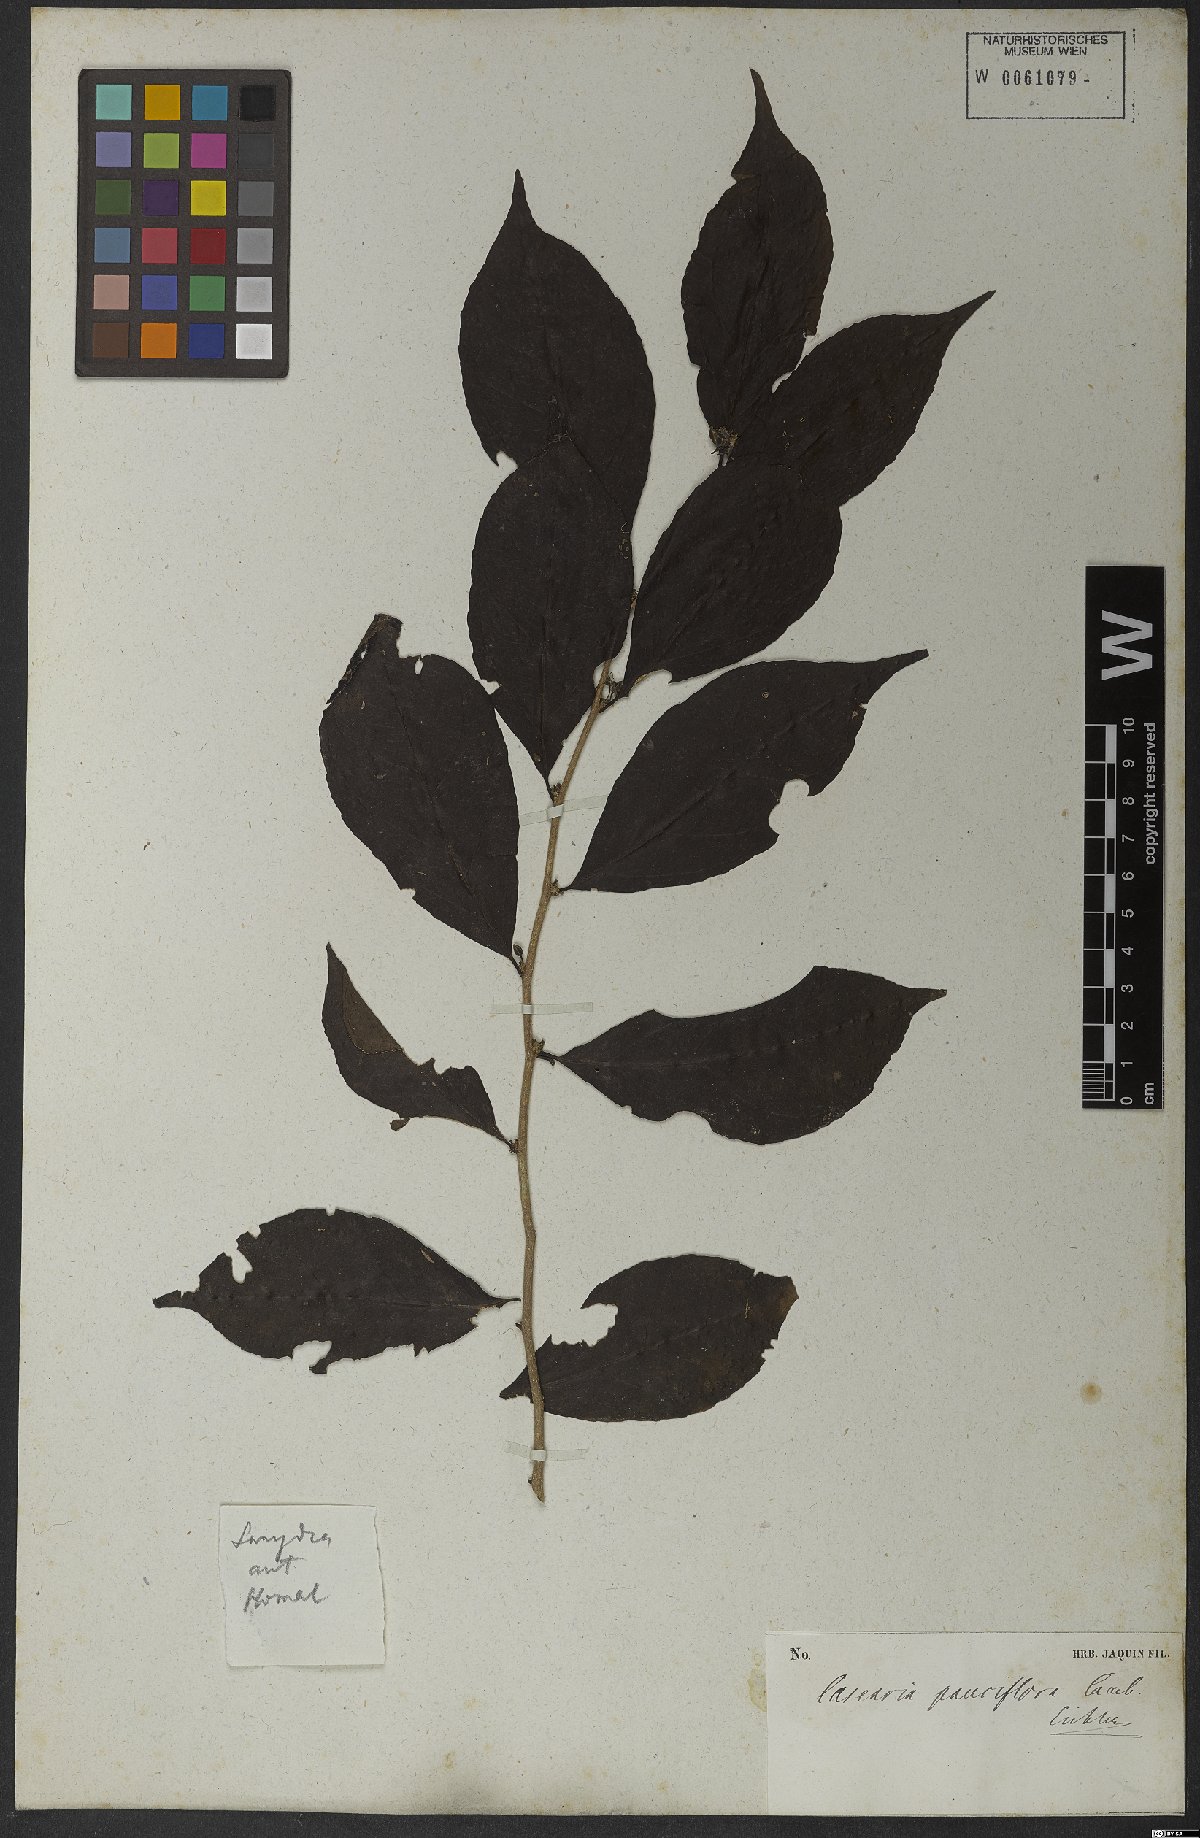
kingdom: Plantae
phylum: Tracheophyta
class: Magnoliopsida
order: Malpighiales
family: Salicaceae
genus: Casearia
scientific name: Casearia pauciflora
